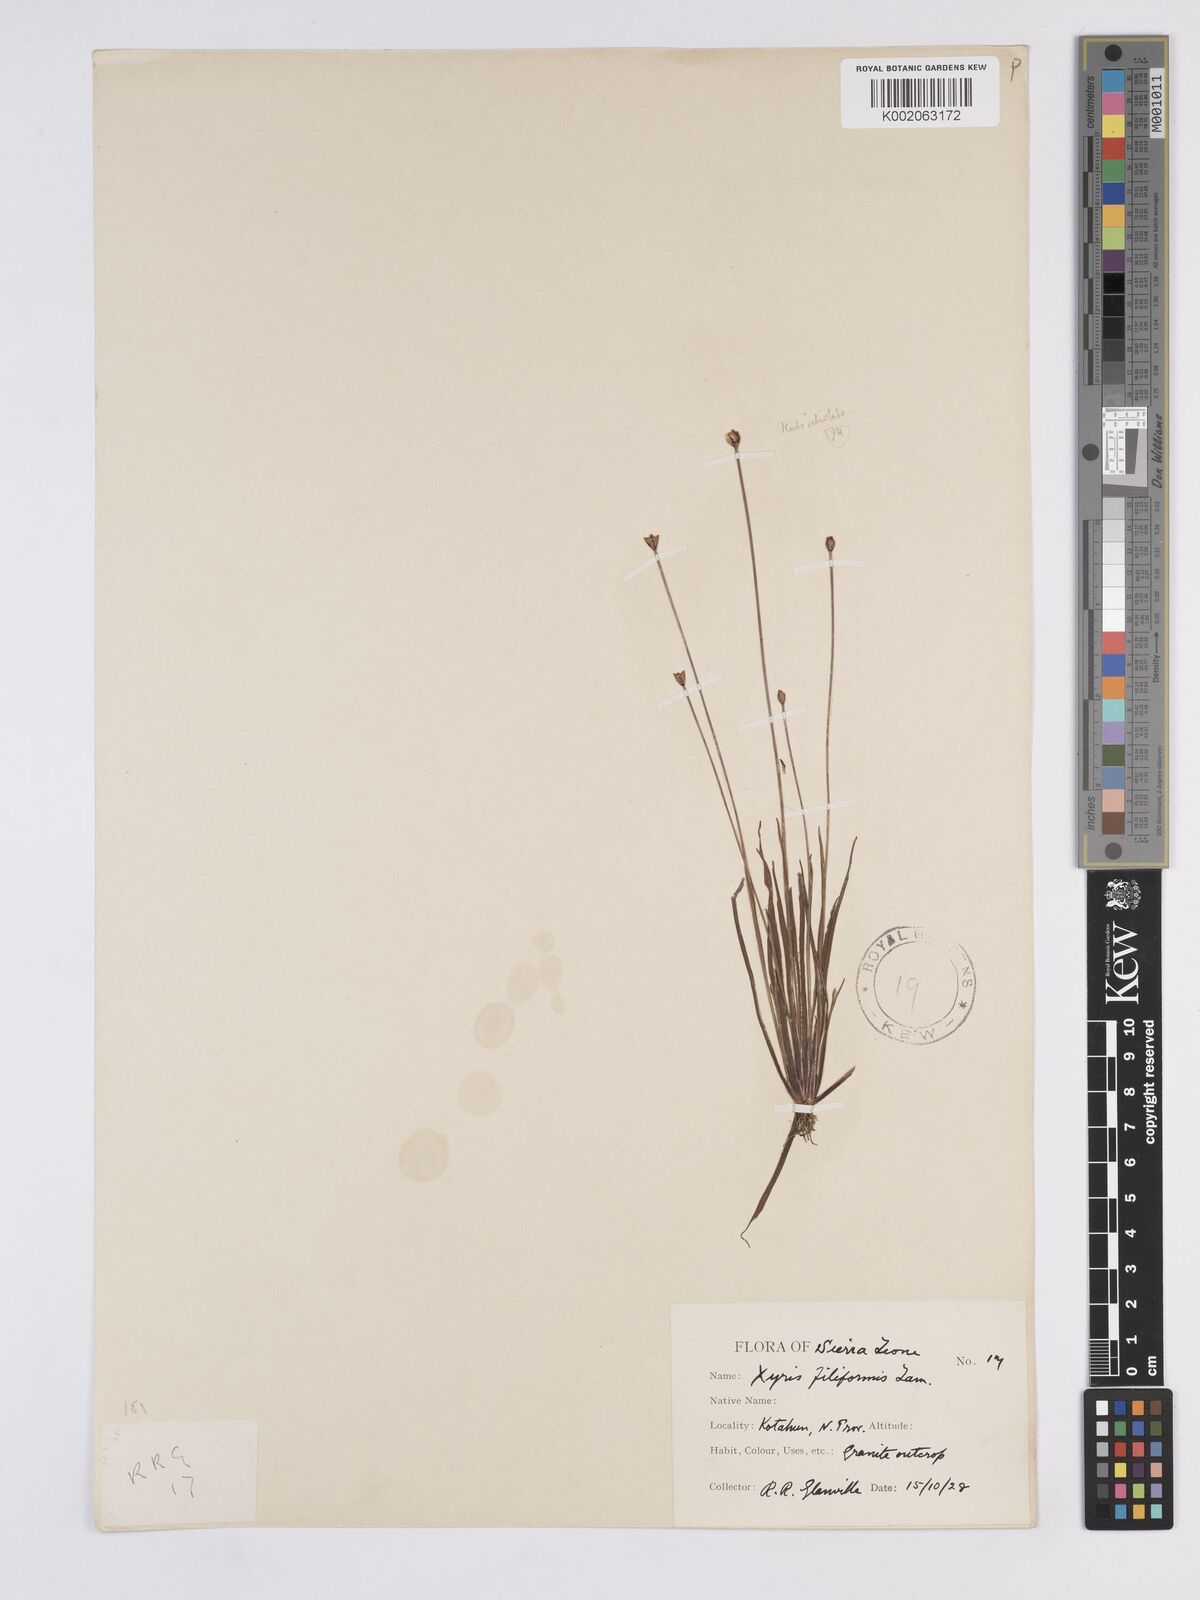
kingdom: Plantae
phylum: Tracheophyta
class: Liliopsida
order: Poales
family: Xyridaceae
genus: Xyris
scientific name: Xyris filiformis
